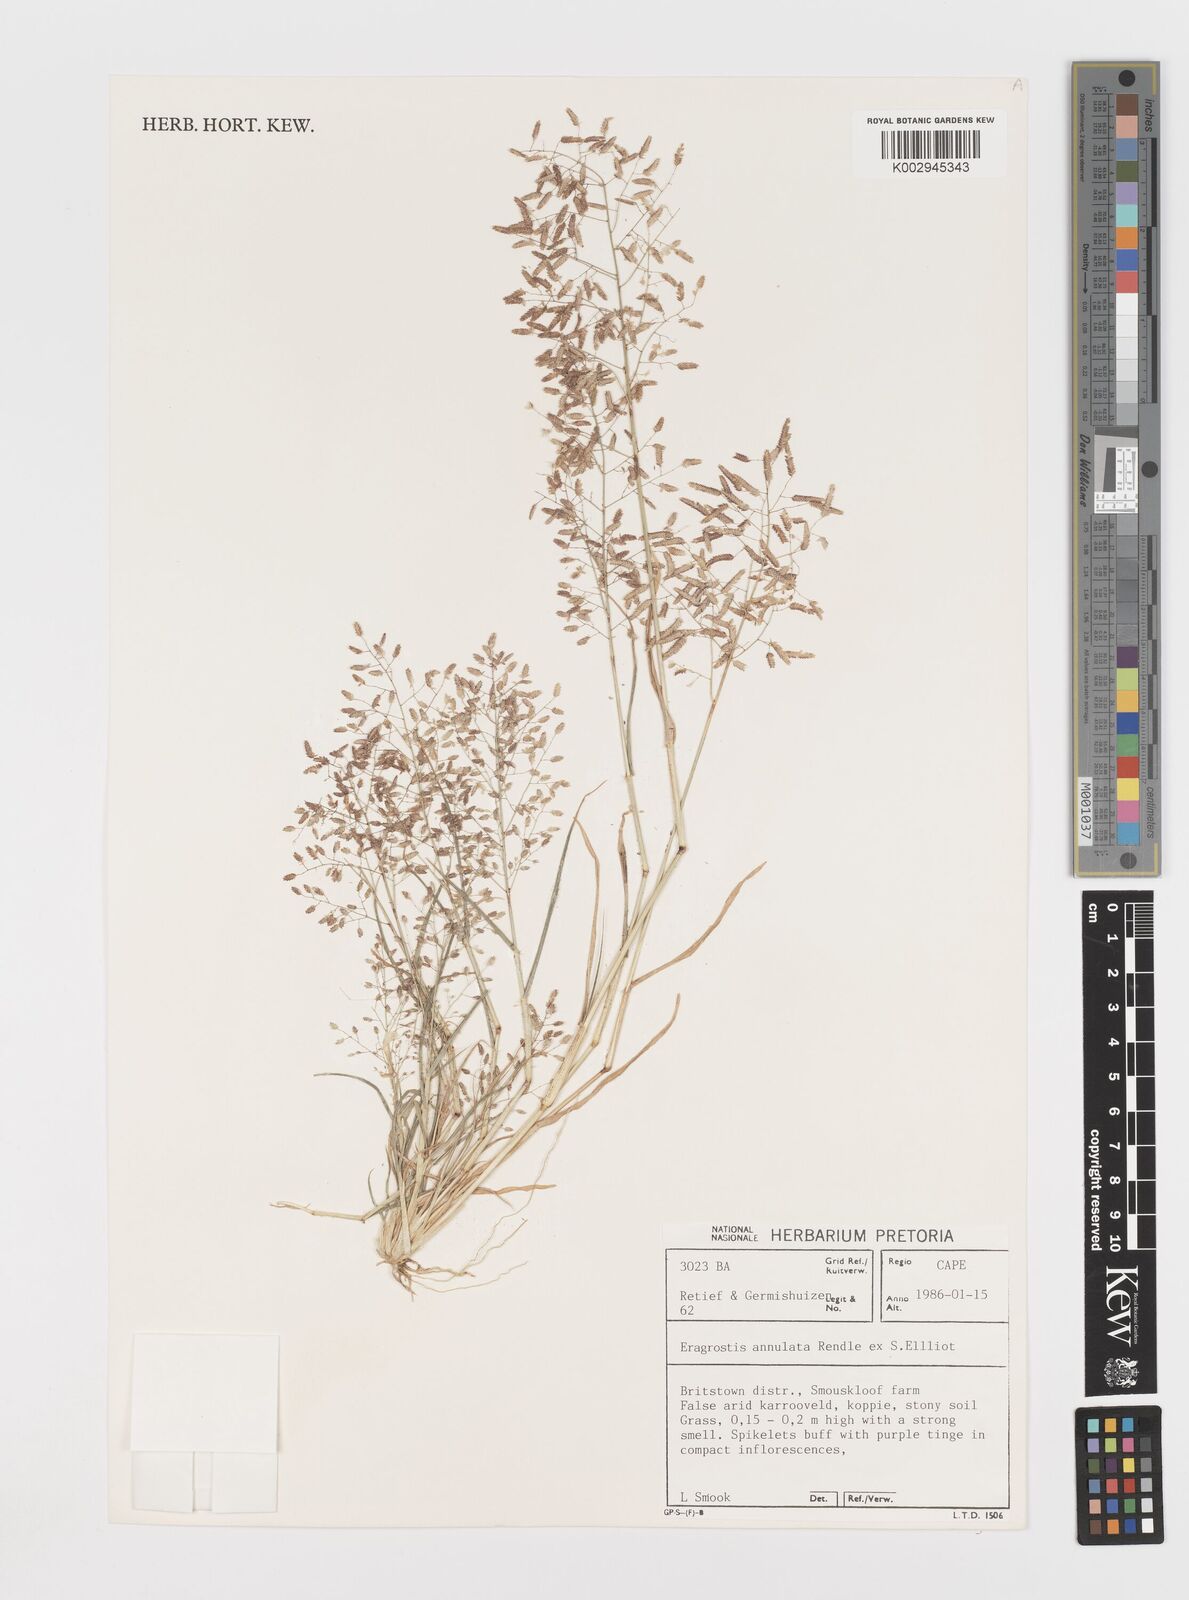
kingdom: Plantae
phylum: Tracheophyta
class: Liliopsida
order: Poales
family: Poaceae
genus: Eragrostis
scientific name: Eragrostis annulata
